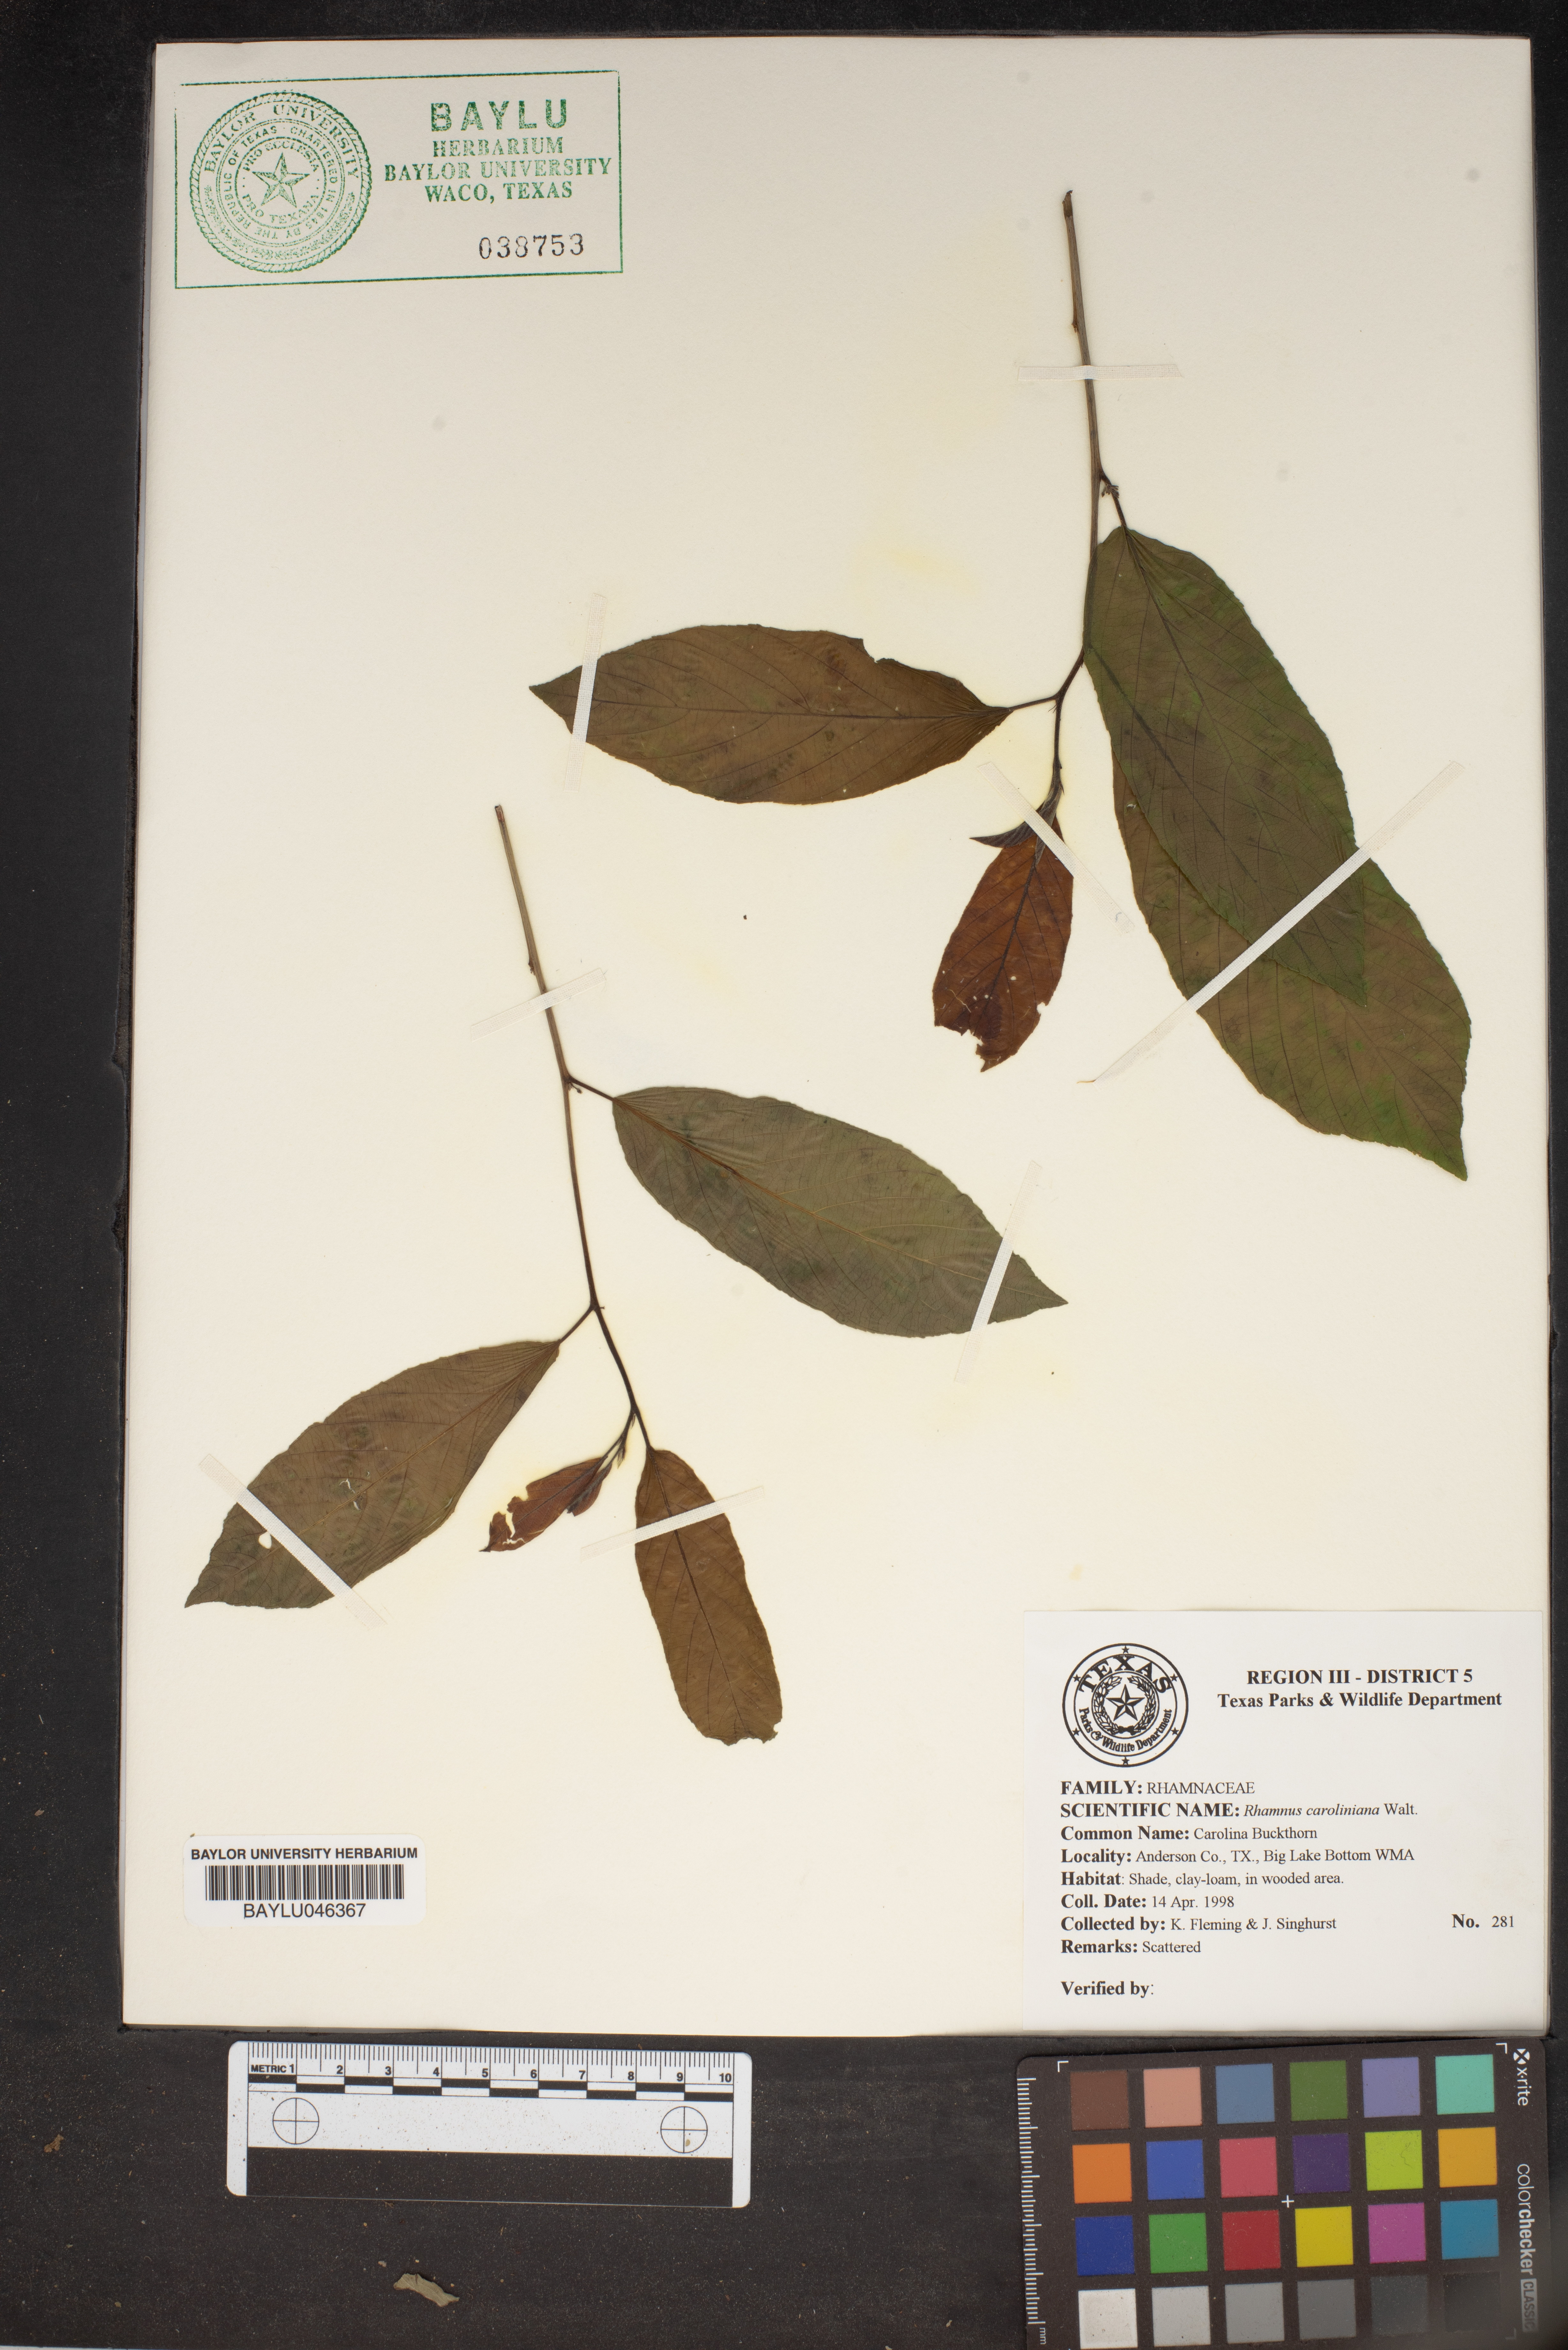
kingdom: Plantae
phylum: Tracheophyta
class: Magnoliopsida
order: Rosales
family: Rhamnaceae
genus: Frangula
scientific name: Frangula caroliniana
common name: Carolina buckthorn
